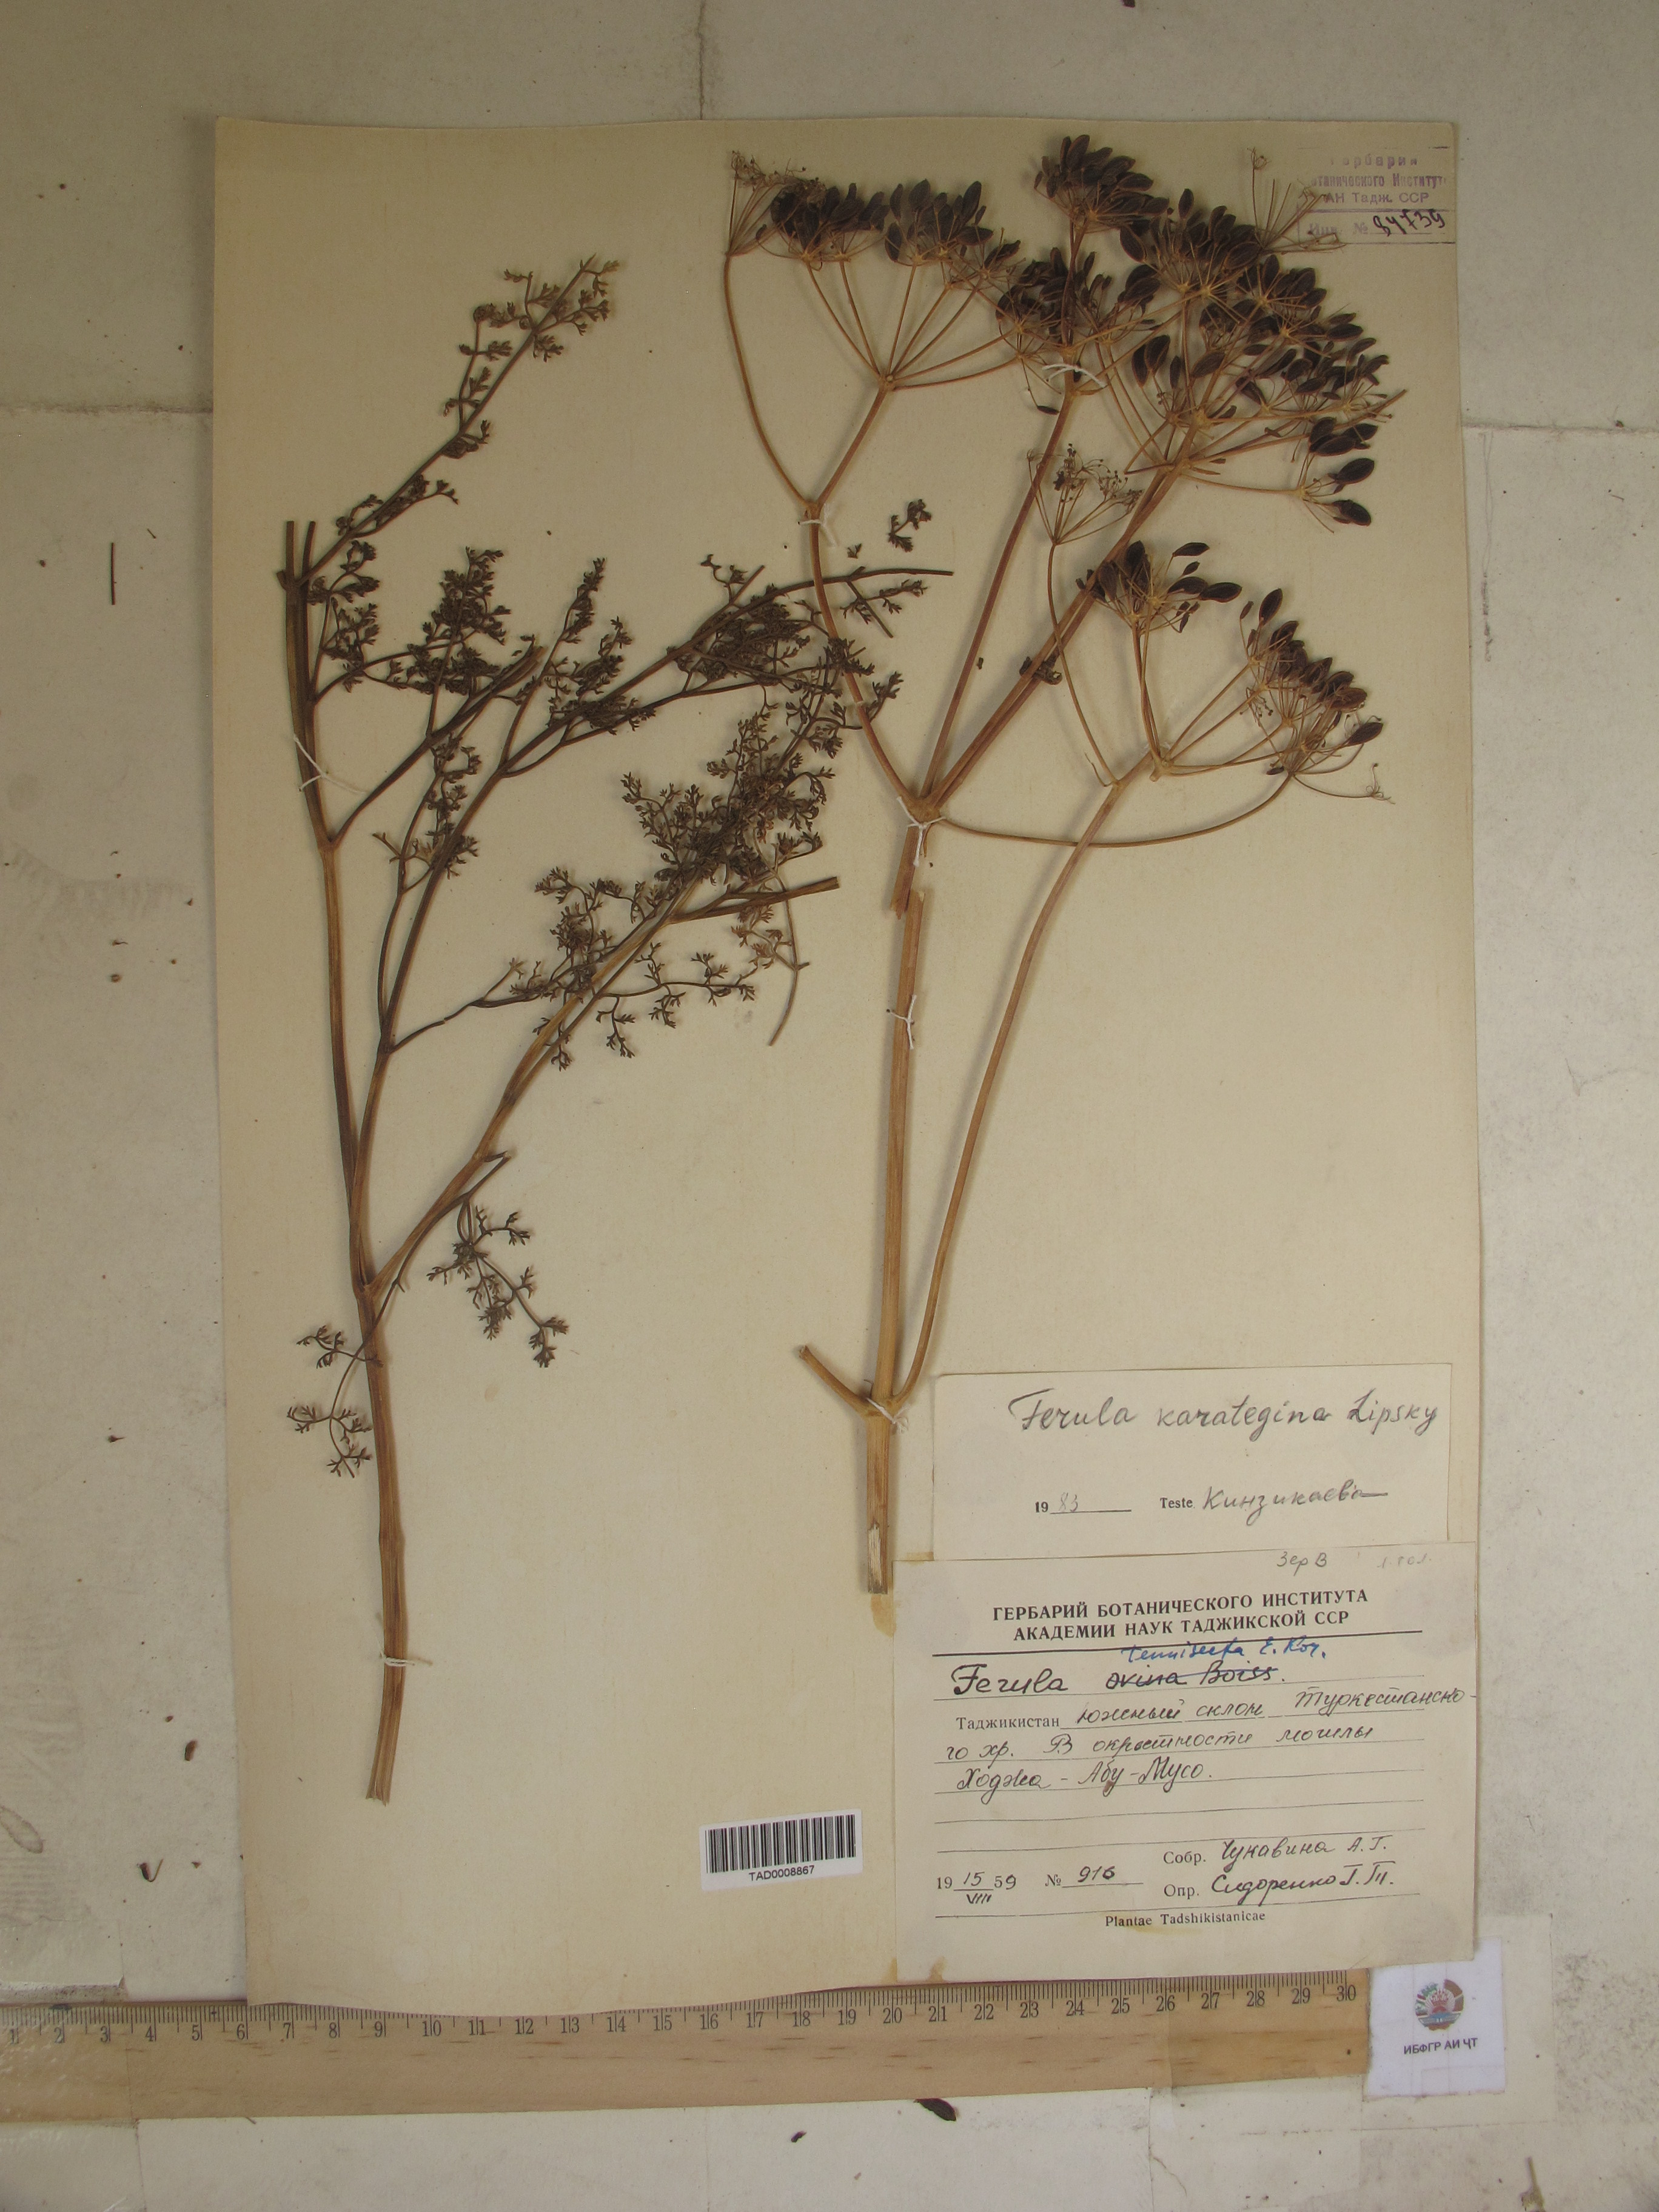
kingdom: Plantae
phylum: Tracheophyta
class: Magnoliopsida
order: Apiales
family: Apiaceae
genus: Ferula
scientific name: Ferula karategina
